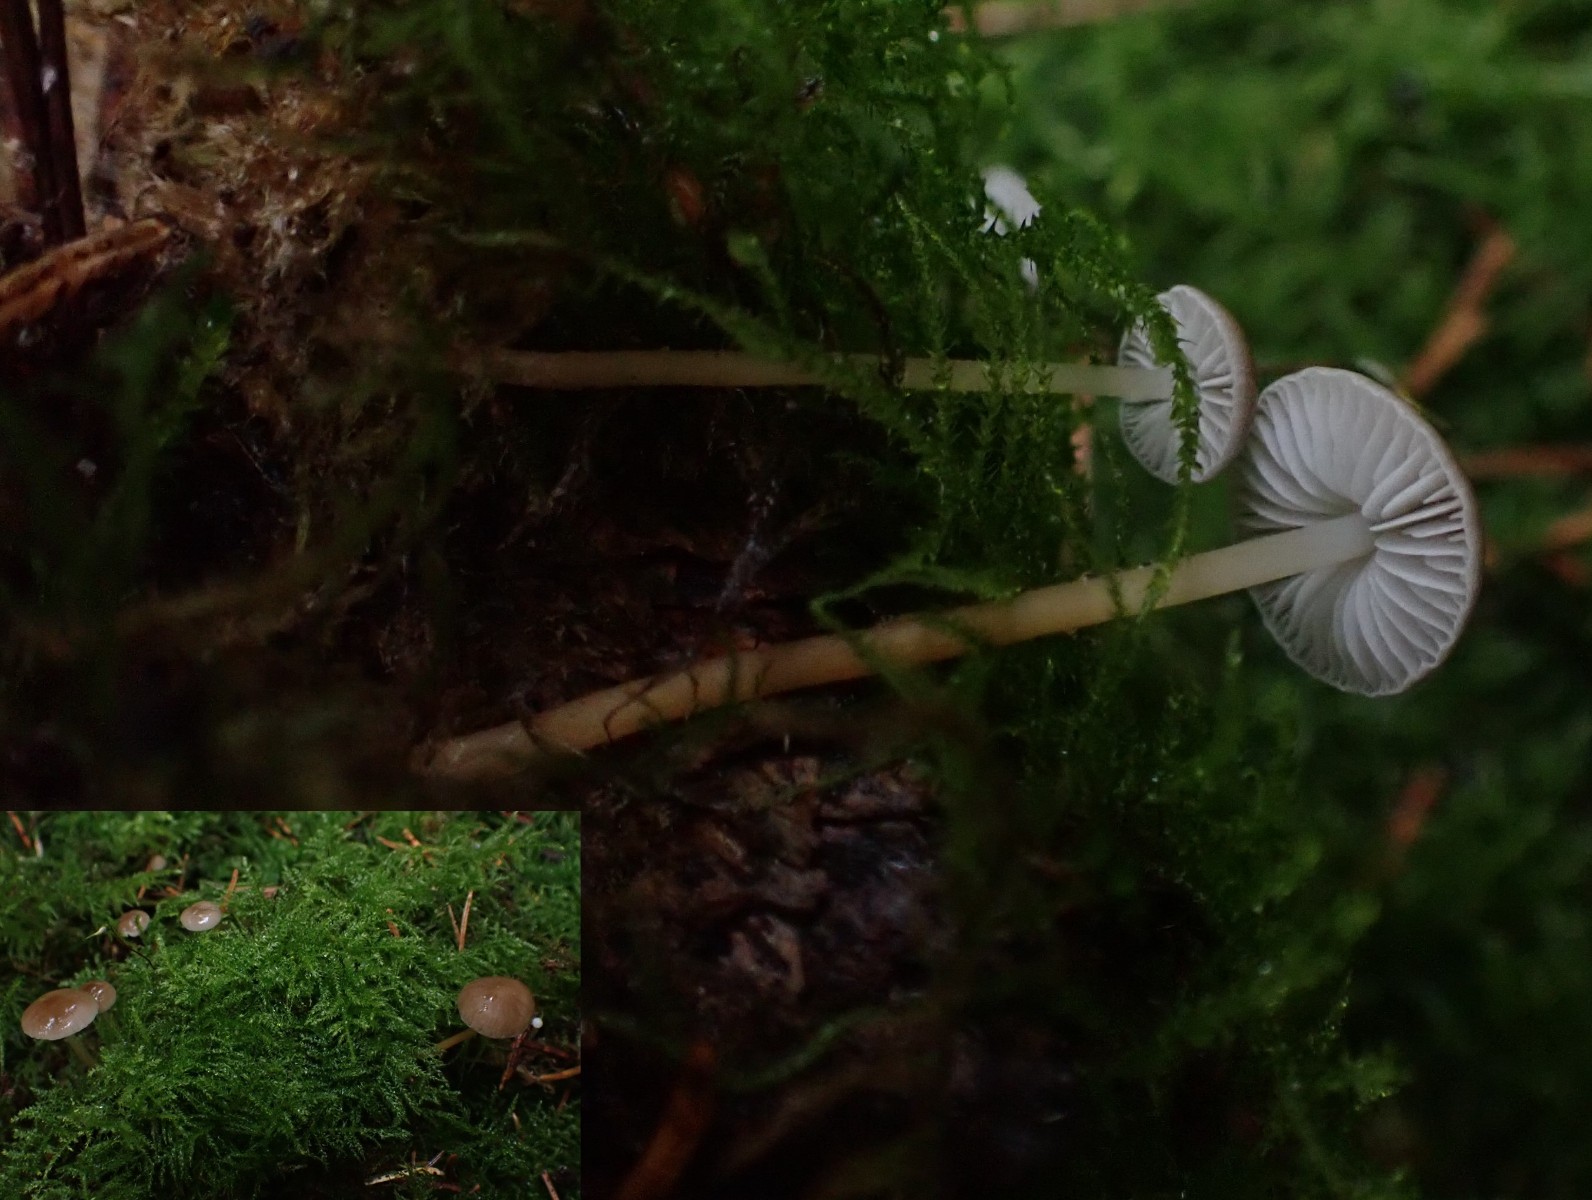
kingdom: Fungi
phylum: Basidiomycota
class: Agaricomycetes
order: Agaricales
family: Physalacriaceae
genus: Strobilurus
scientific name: Strobilurus esculentus
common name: gran-koglehat
